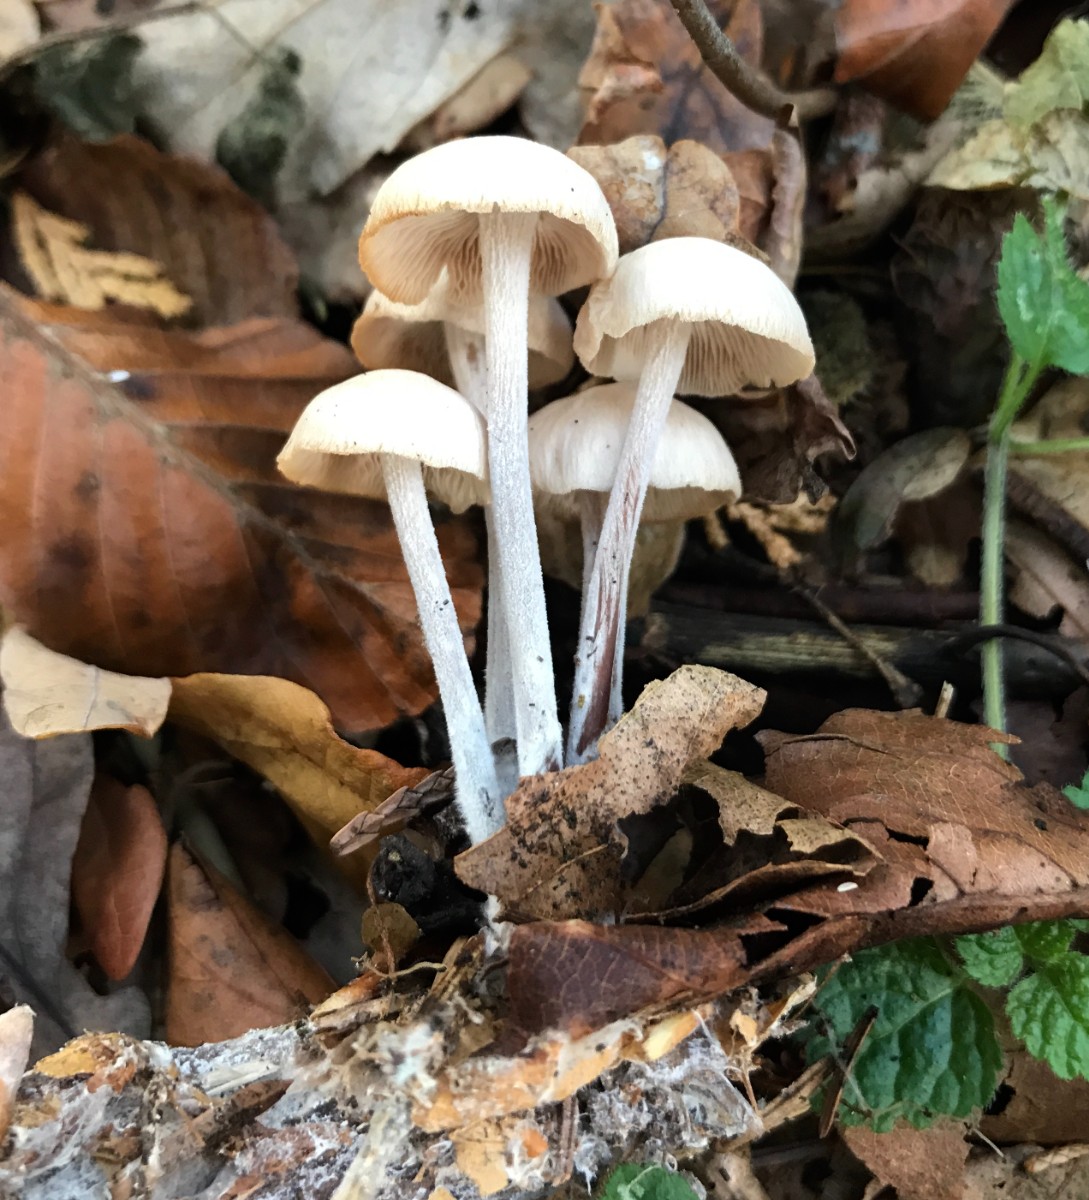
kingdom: Fungi
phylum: Basidiomycota
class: Agaricomycetes
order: Agaricales
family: Omphalotaceae
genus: Collybiopsis
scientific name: Collybiopsis confluens
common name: knippe-fladhat
